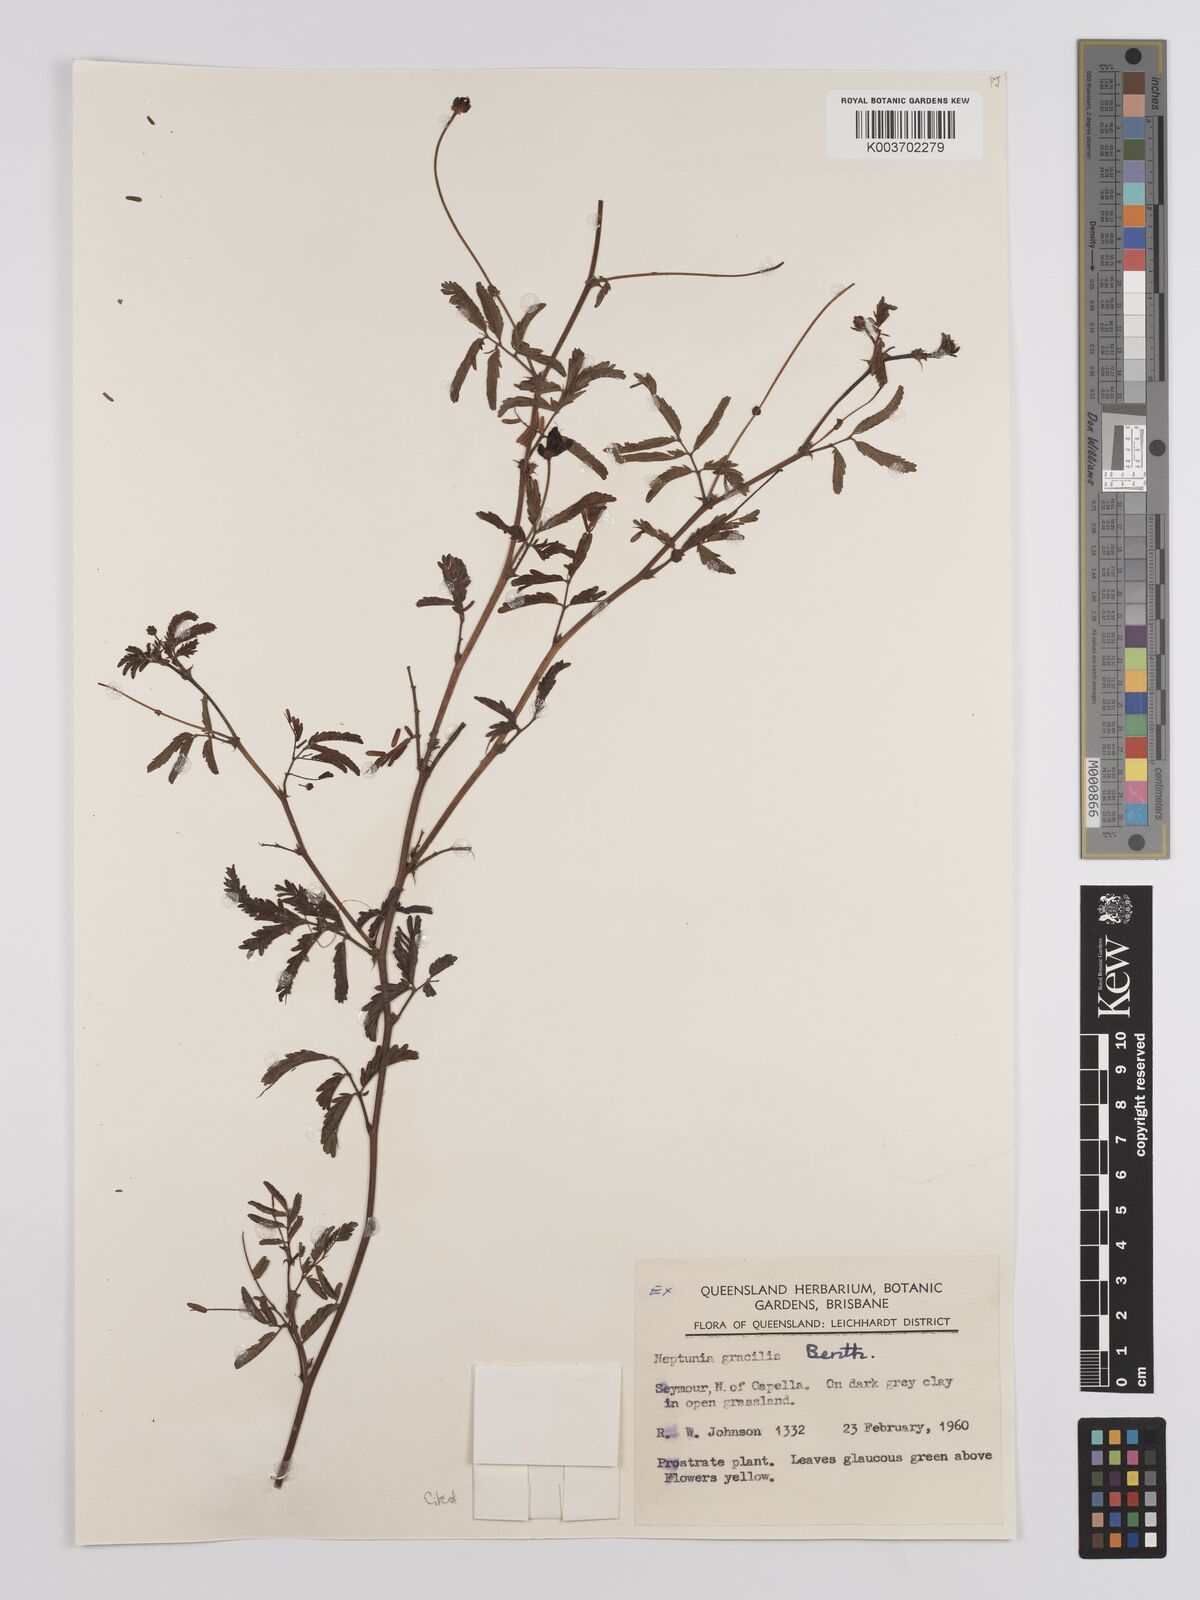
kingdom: Plantae
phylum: Tracheophyta
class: Magnoliopsida
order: Fabales
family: Fabaceae
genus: Neptunia
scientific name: Neptunia gracilis
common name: Sensitive-plant
